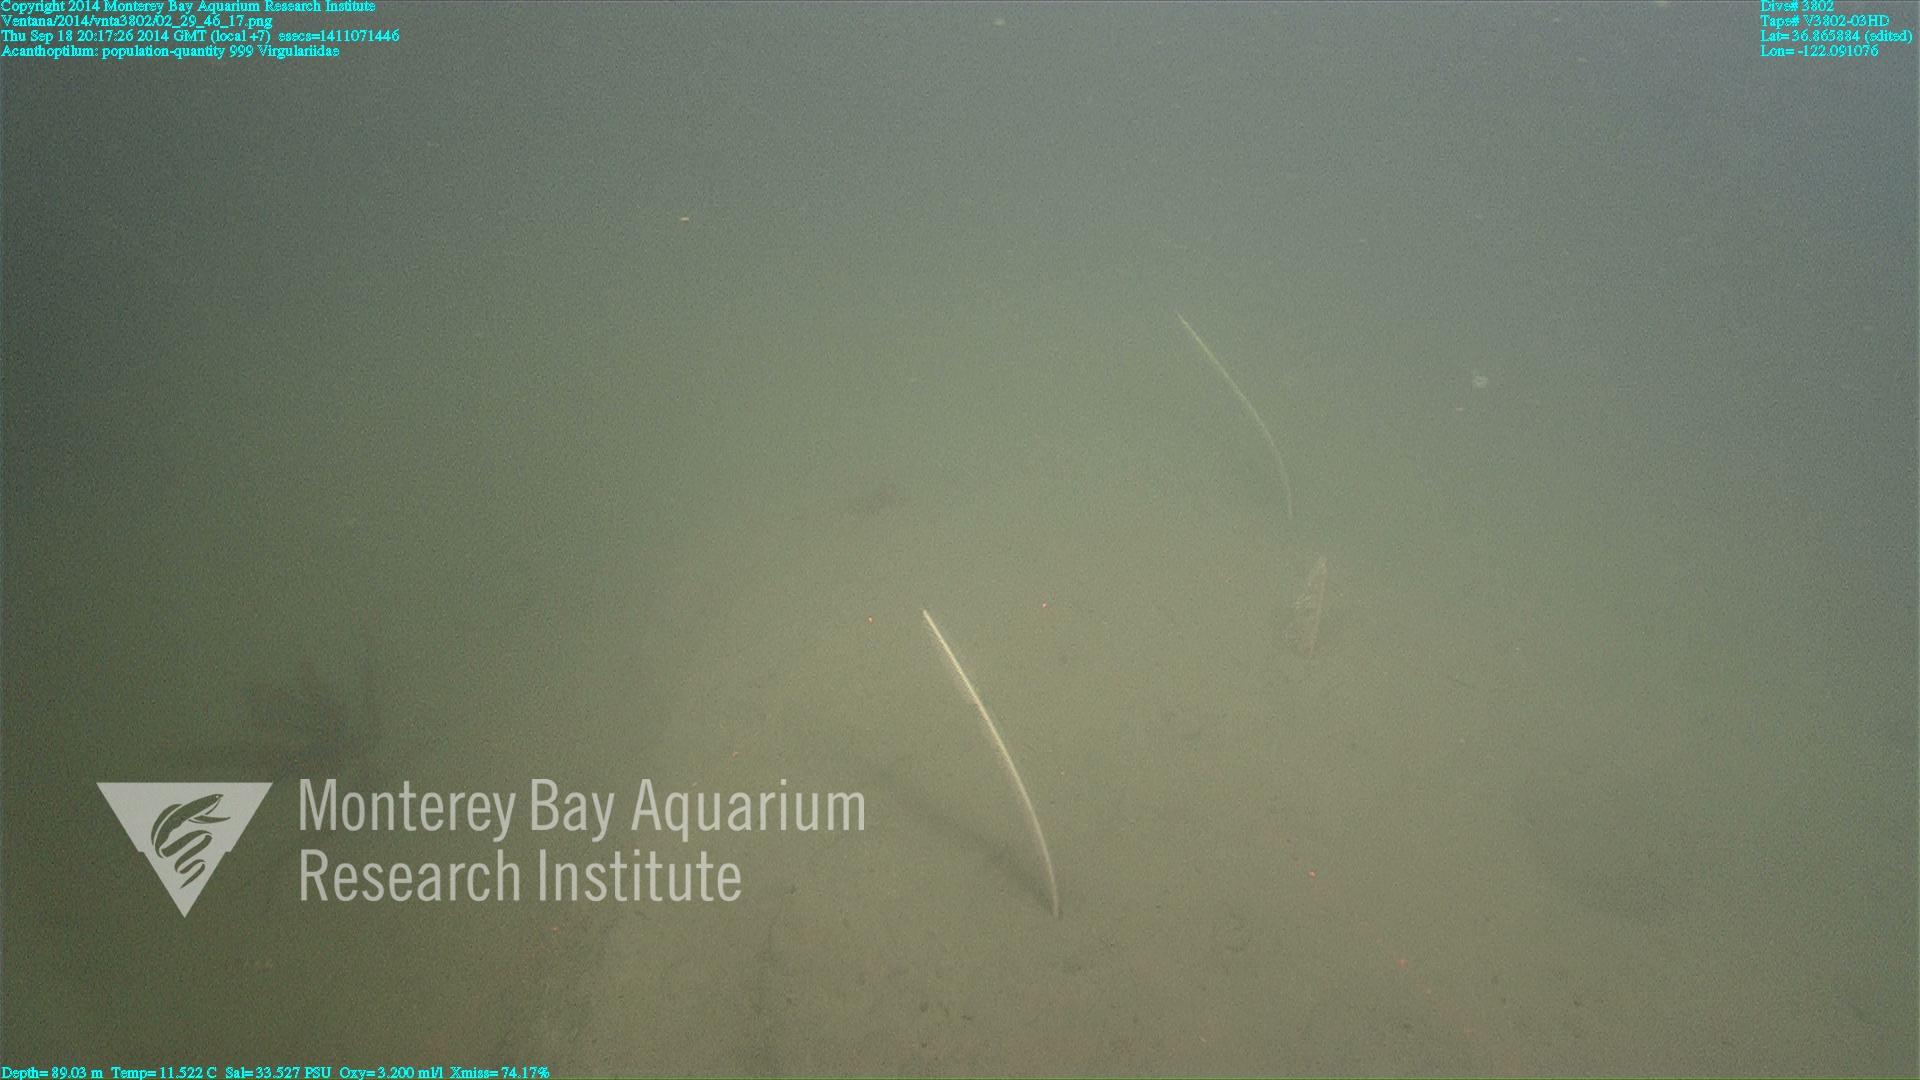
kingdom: Animalia
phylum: Cnidaria
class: Anthozoa
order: Scleralcyonacea
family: Virgulariidae
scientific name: Virgulariidae
